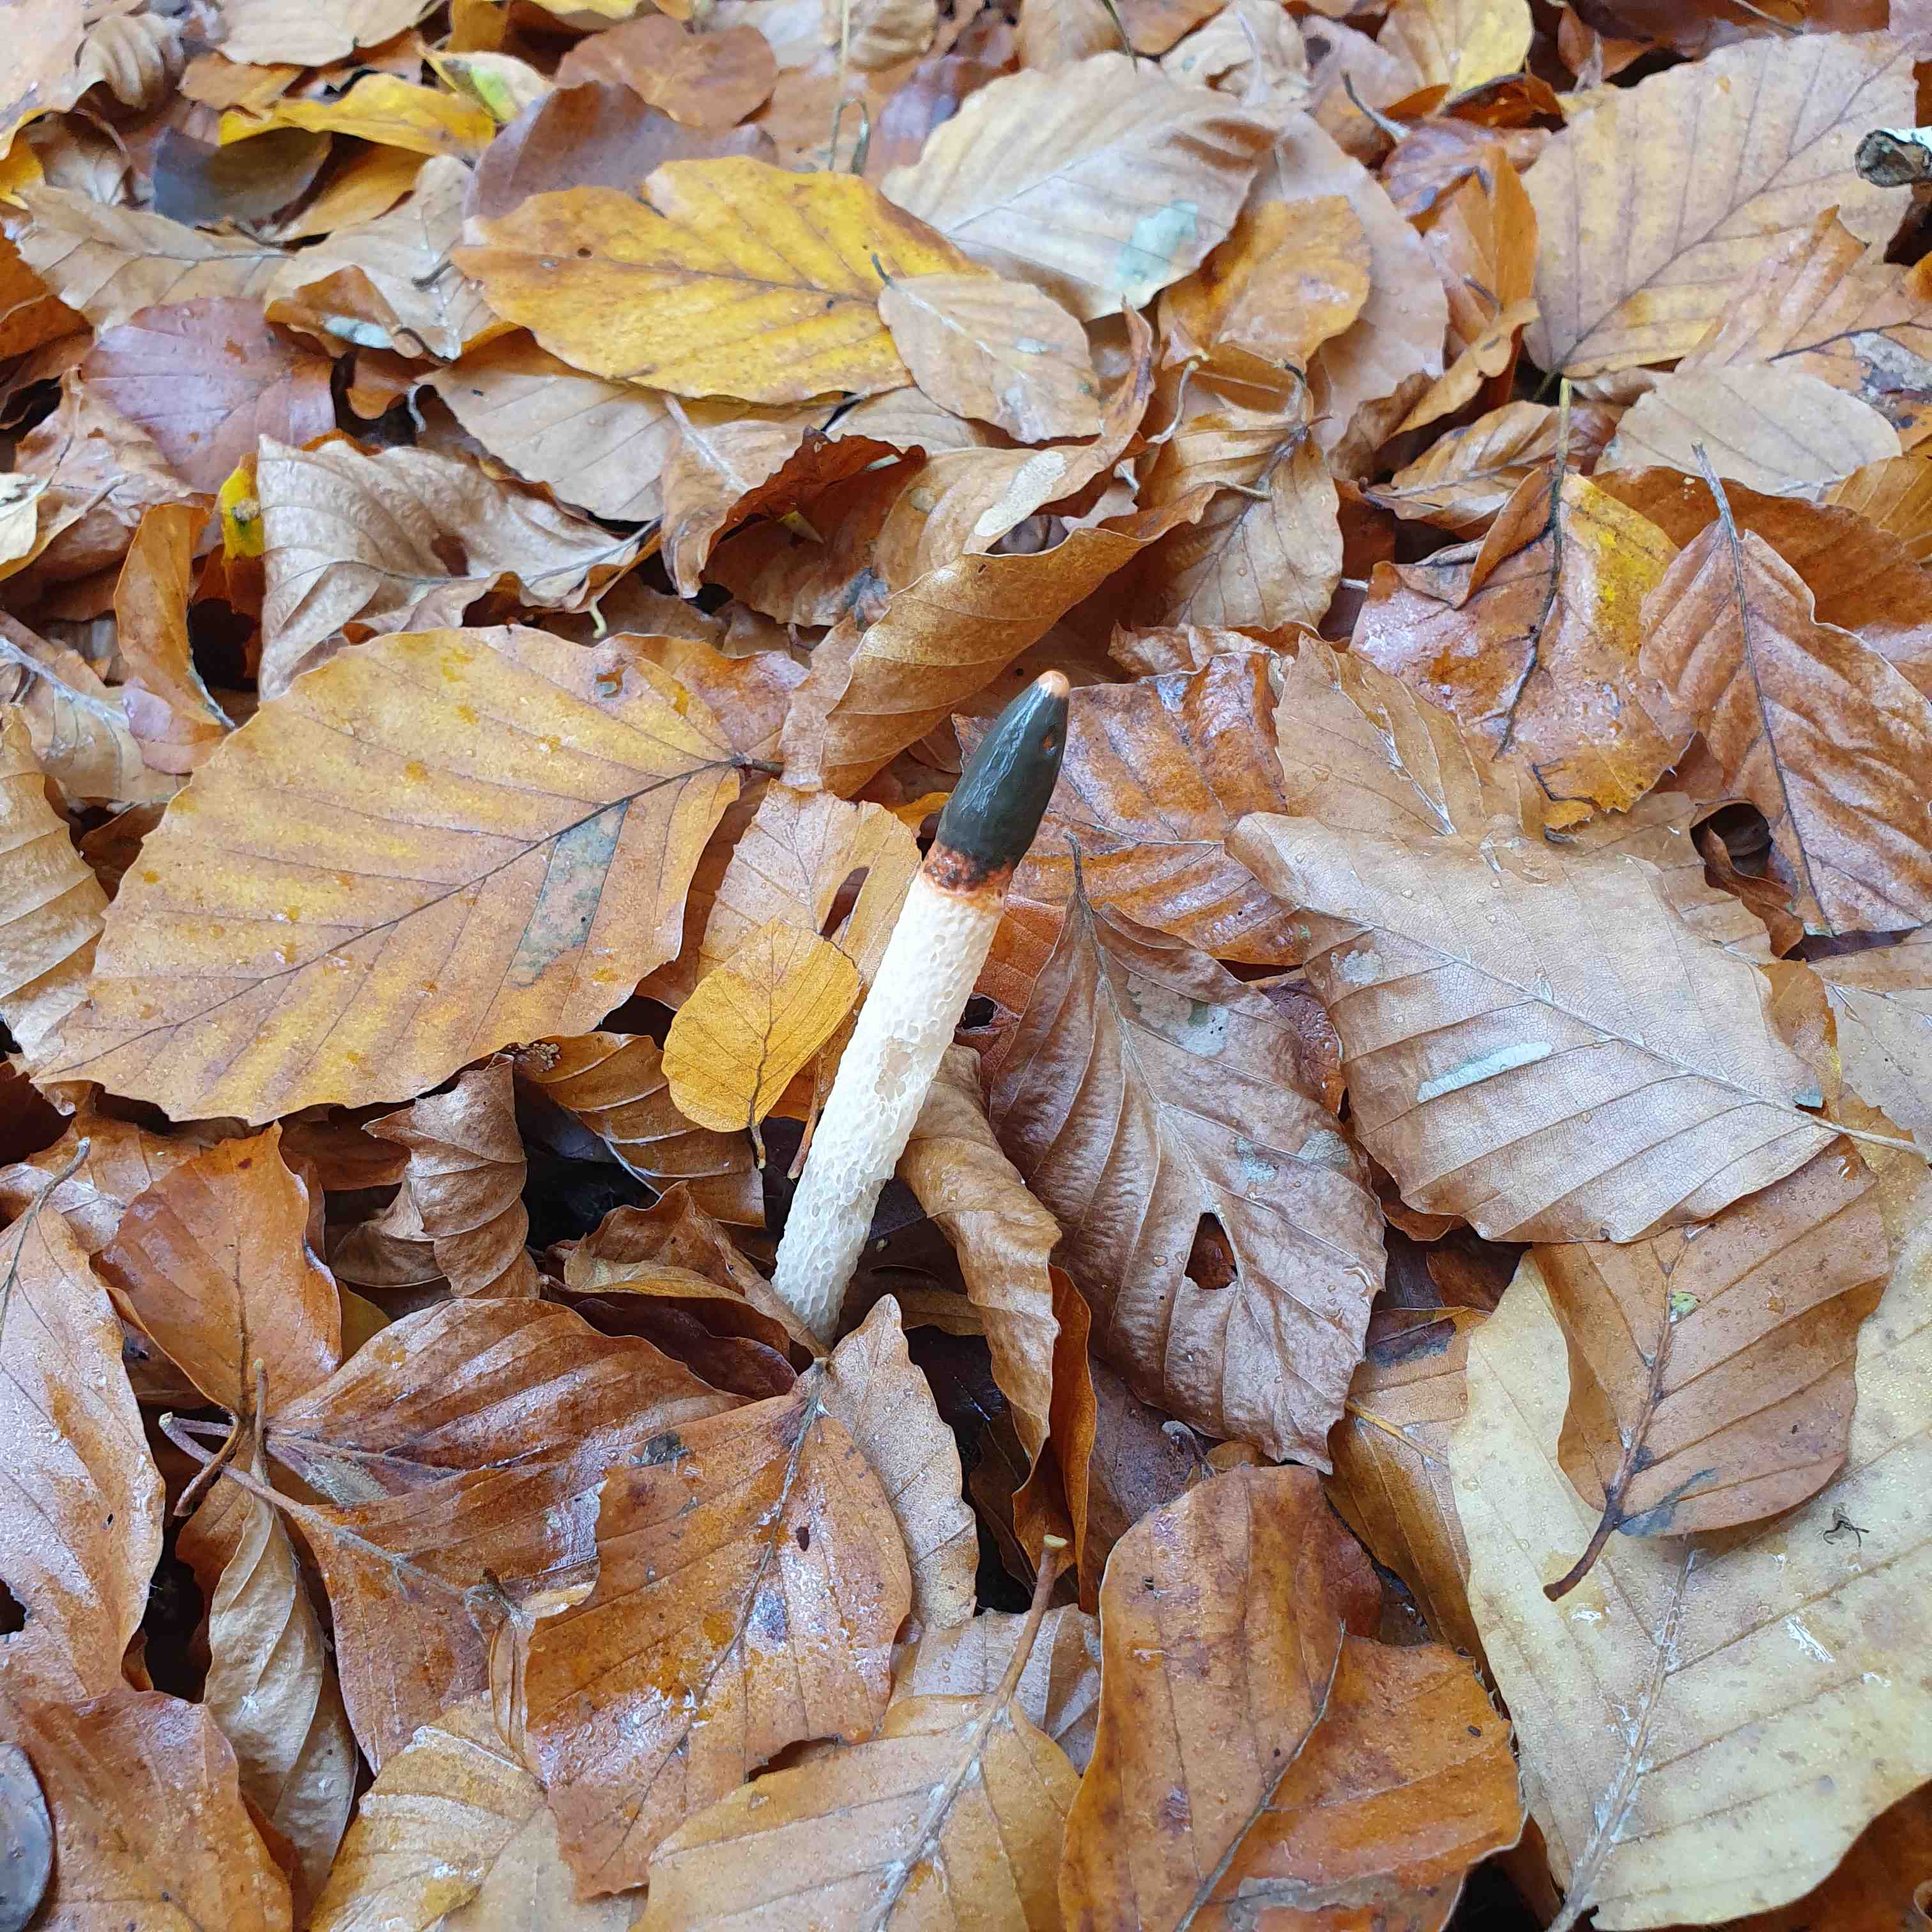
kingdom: Fungi
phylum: Basidiomycota
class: Agaricomycetes
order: Phallales
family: Phallaceae
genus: Mutinus
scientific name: Mutinus caninus
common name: hunde-stinksvamp
